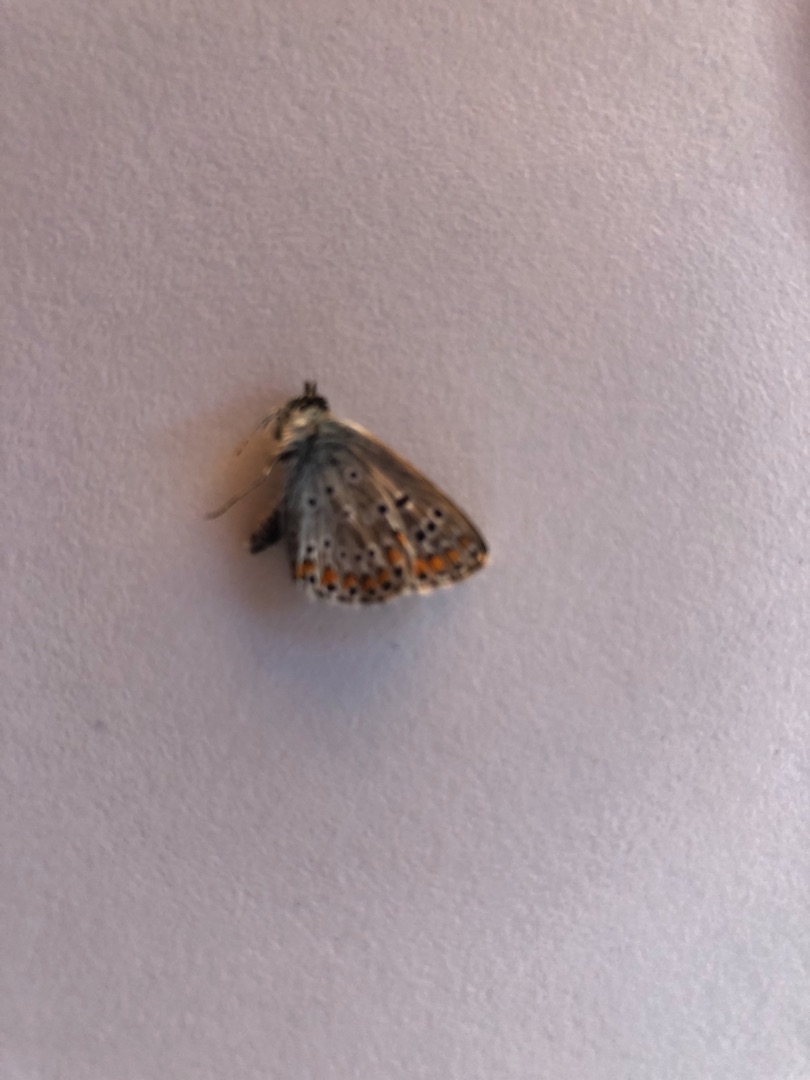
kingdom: Animalia
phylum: Arthropoda
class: Insecta
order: Lepidoptera
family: Lycaenidae
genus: Aricia
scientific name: Aricia agestis
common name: Rødplettet blåfugl
